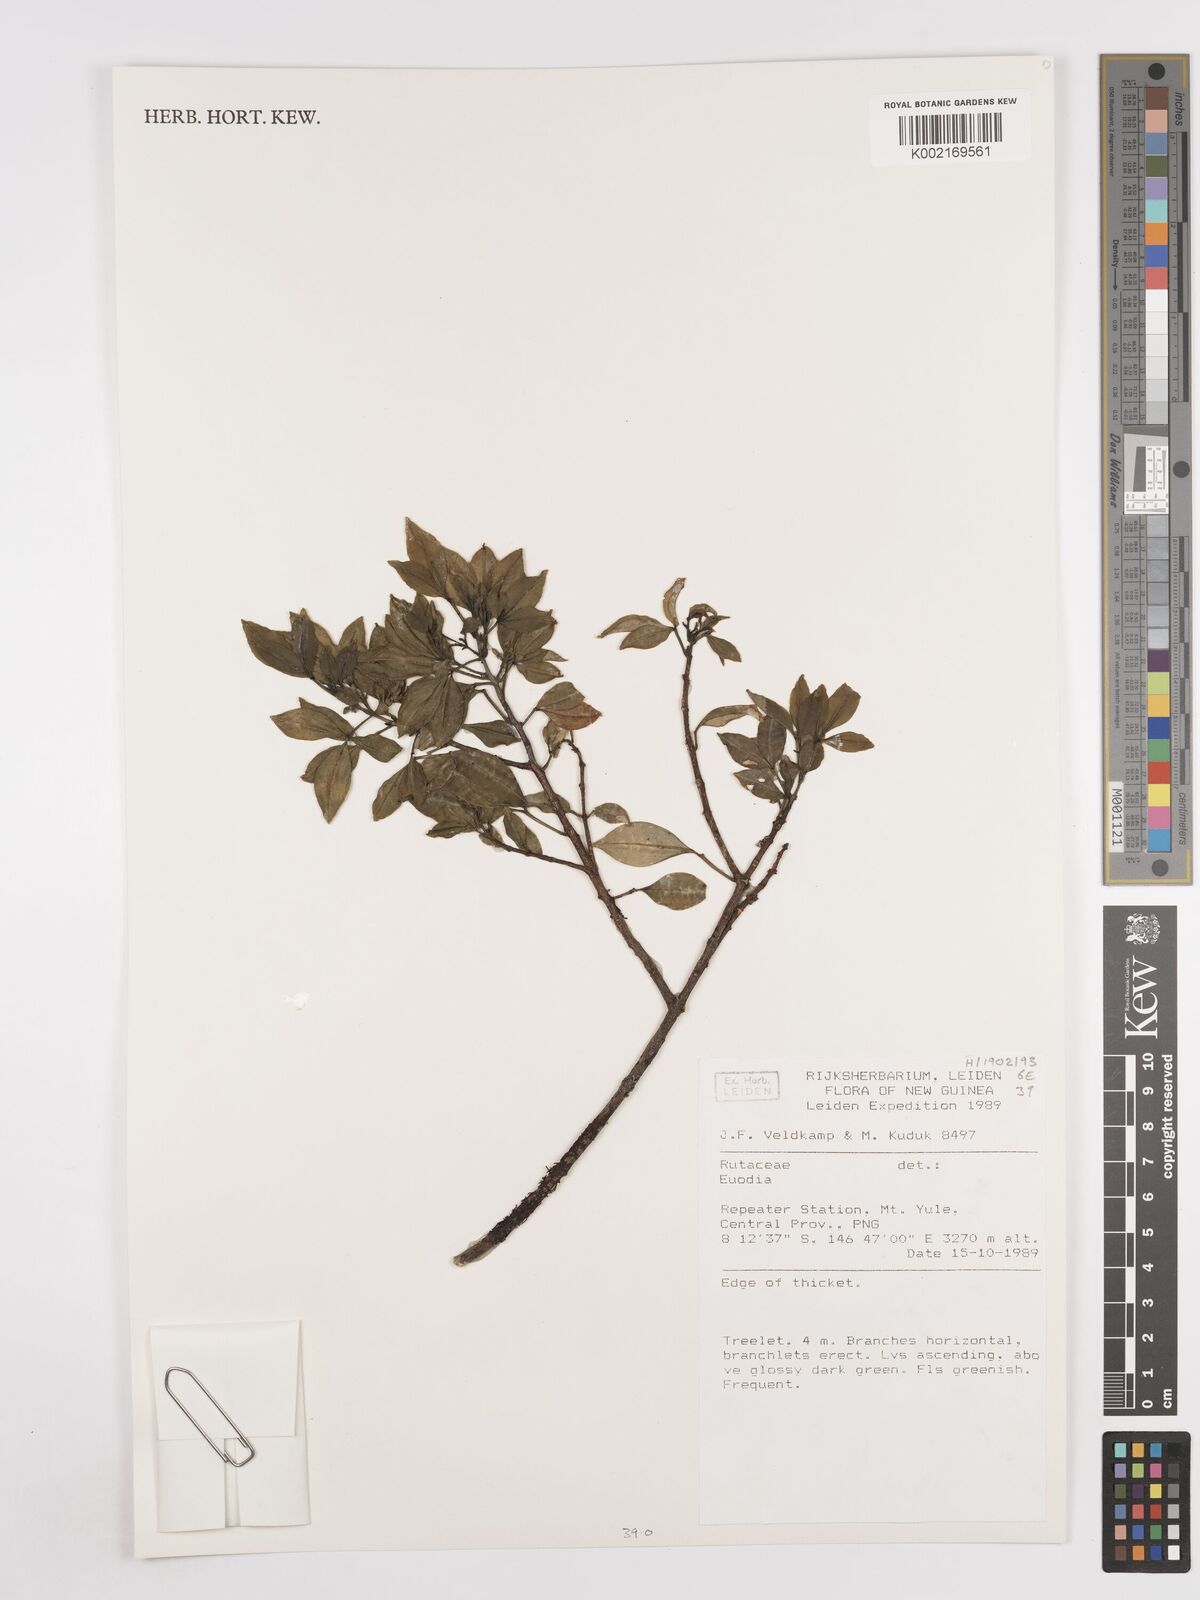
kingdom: Plantae
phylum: Tracheophyta
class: Magnoliopsida
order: Sapindales
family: Rutaceae
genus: Euodia
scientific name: Euodia
